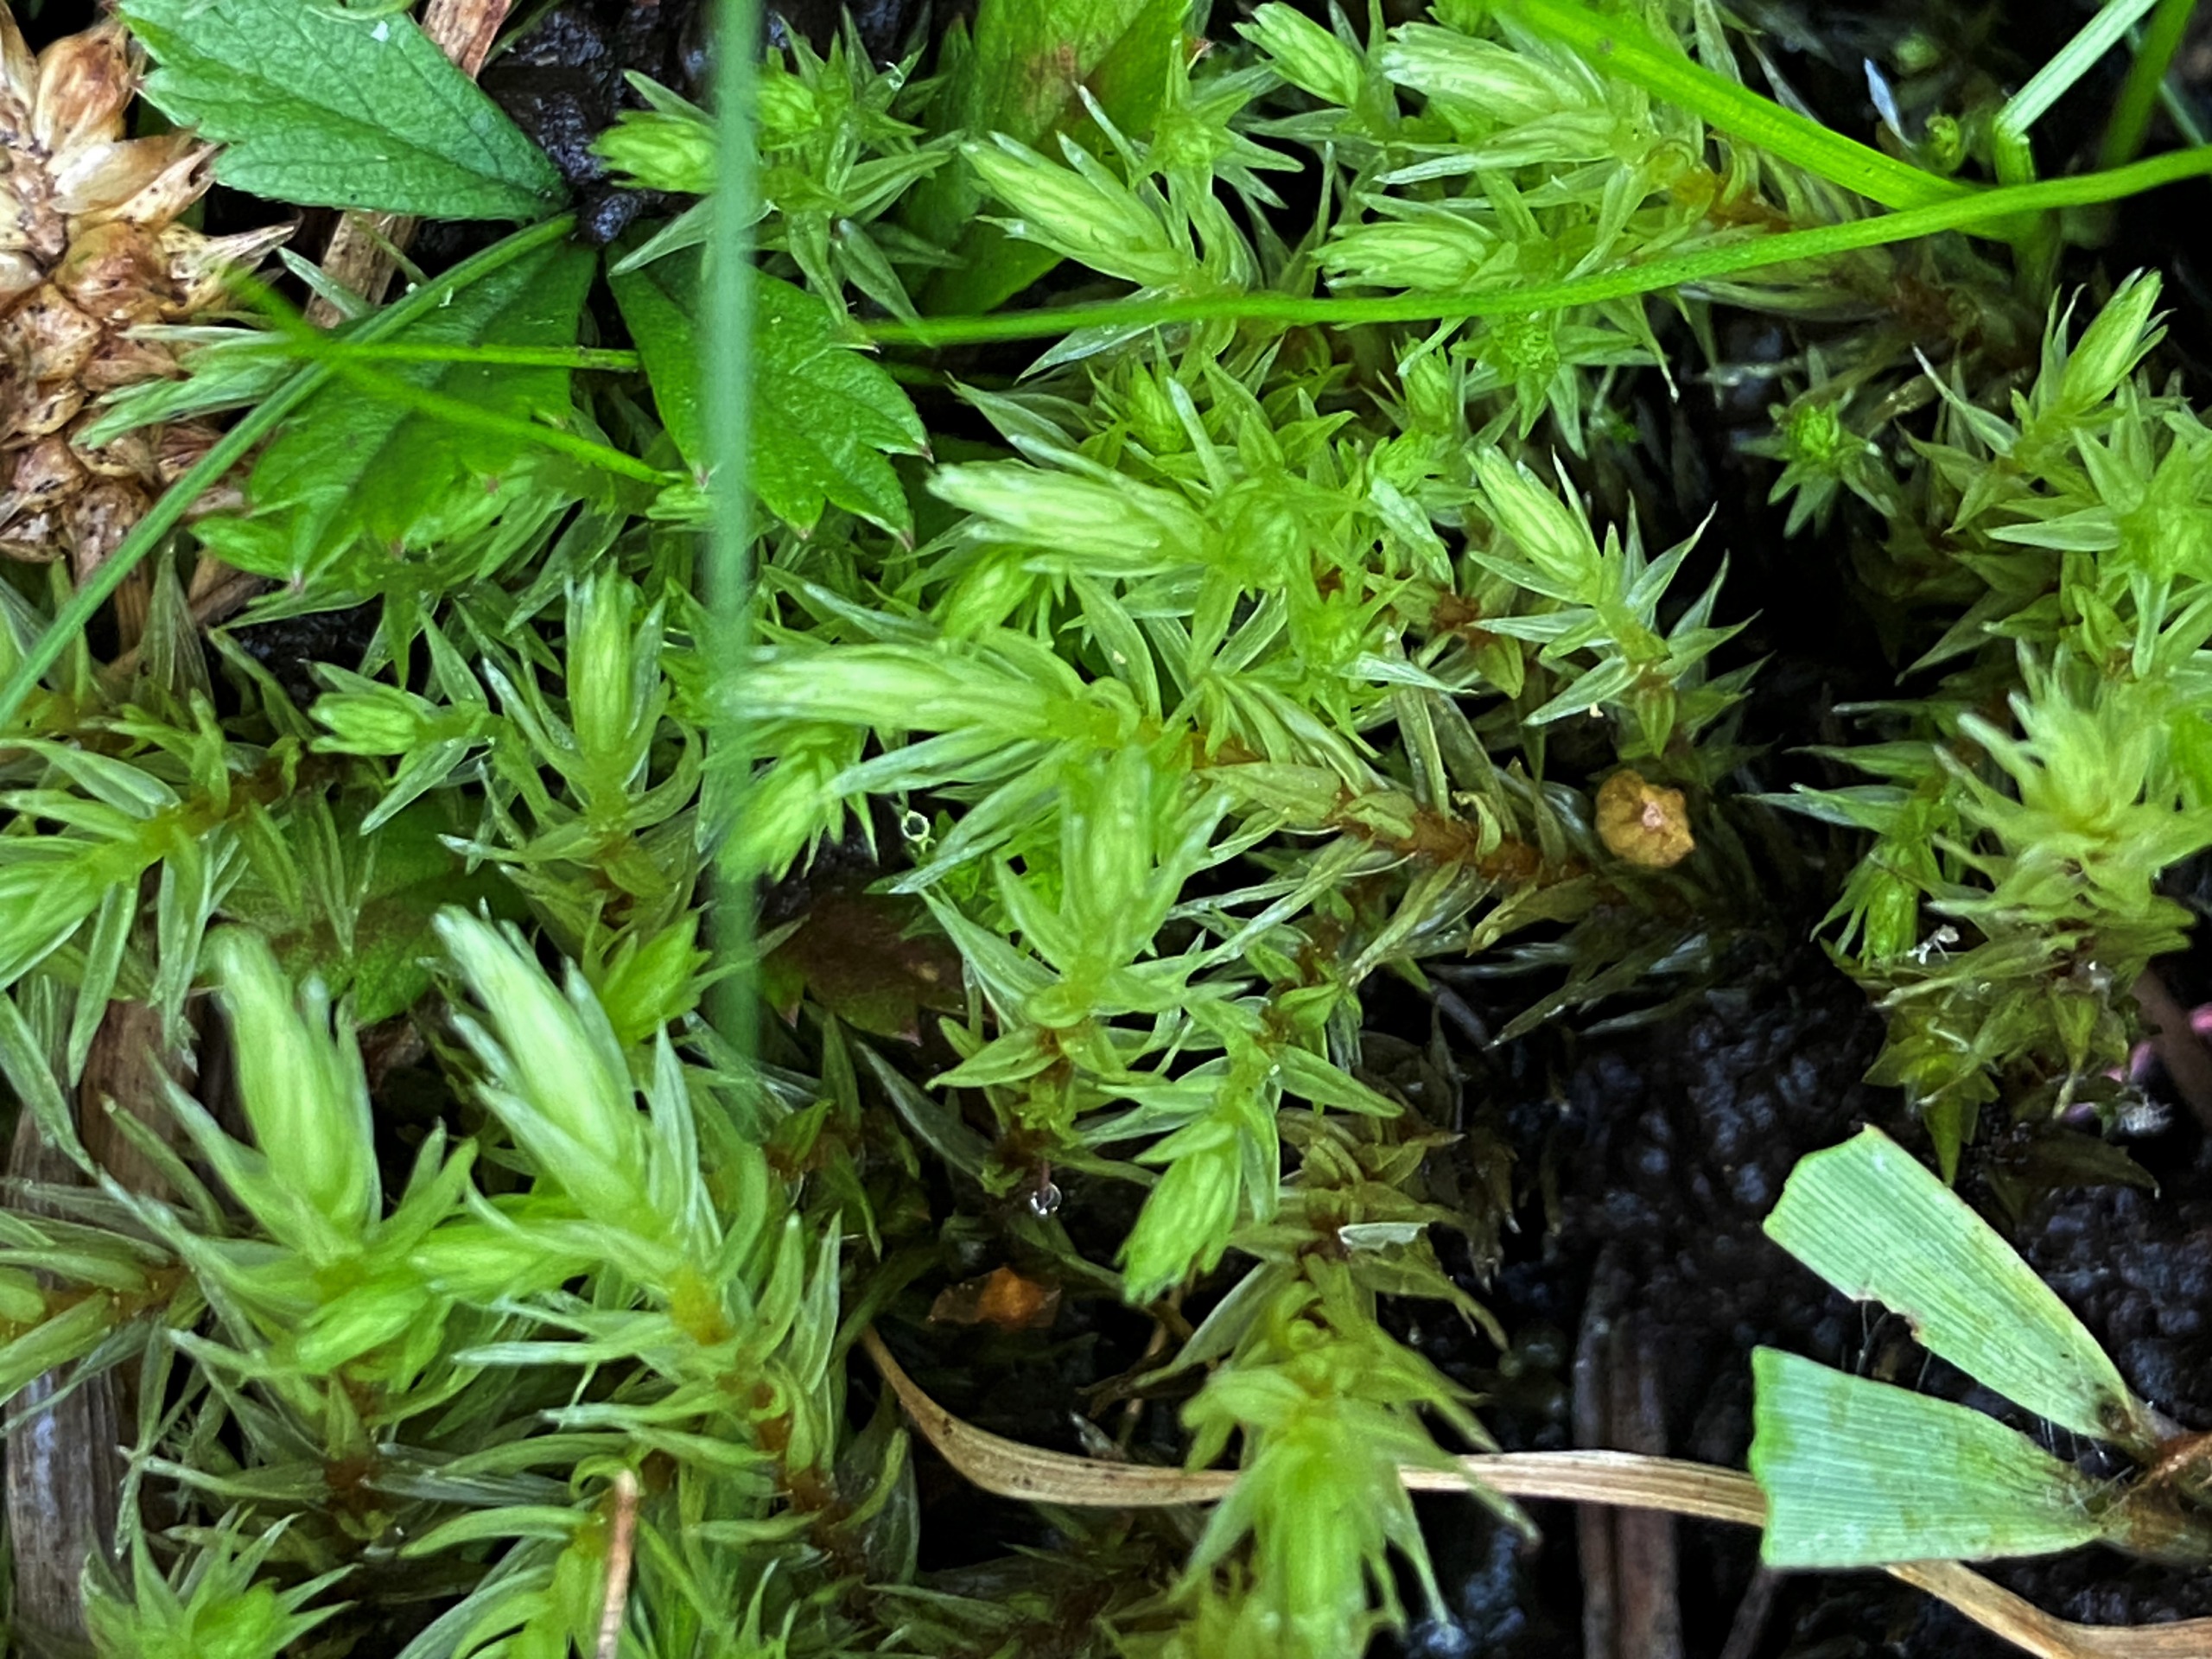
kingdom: Plantae
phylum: Bryophyta
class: Bryopsida
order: Aulacomniales
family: Aulacomniaceae
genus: Aulacomnium
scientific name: Aulacomnium palustre
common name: Almindelig filtmos
